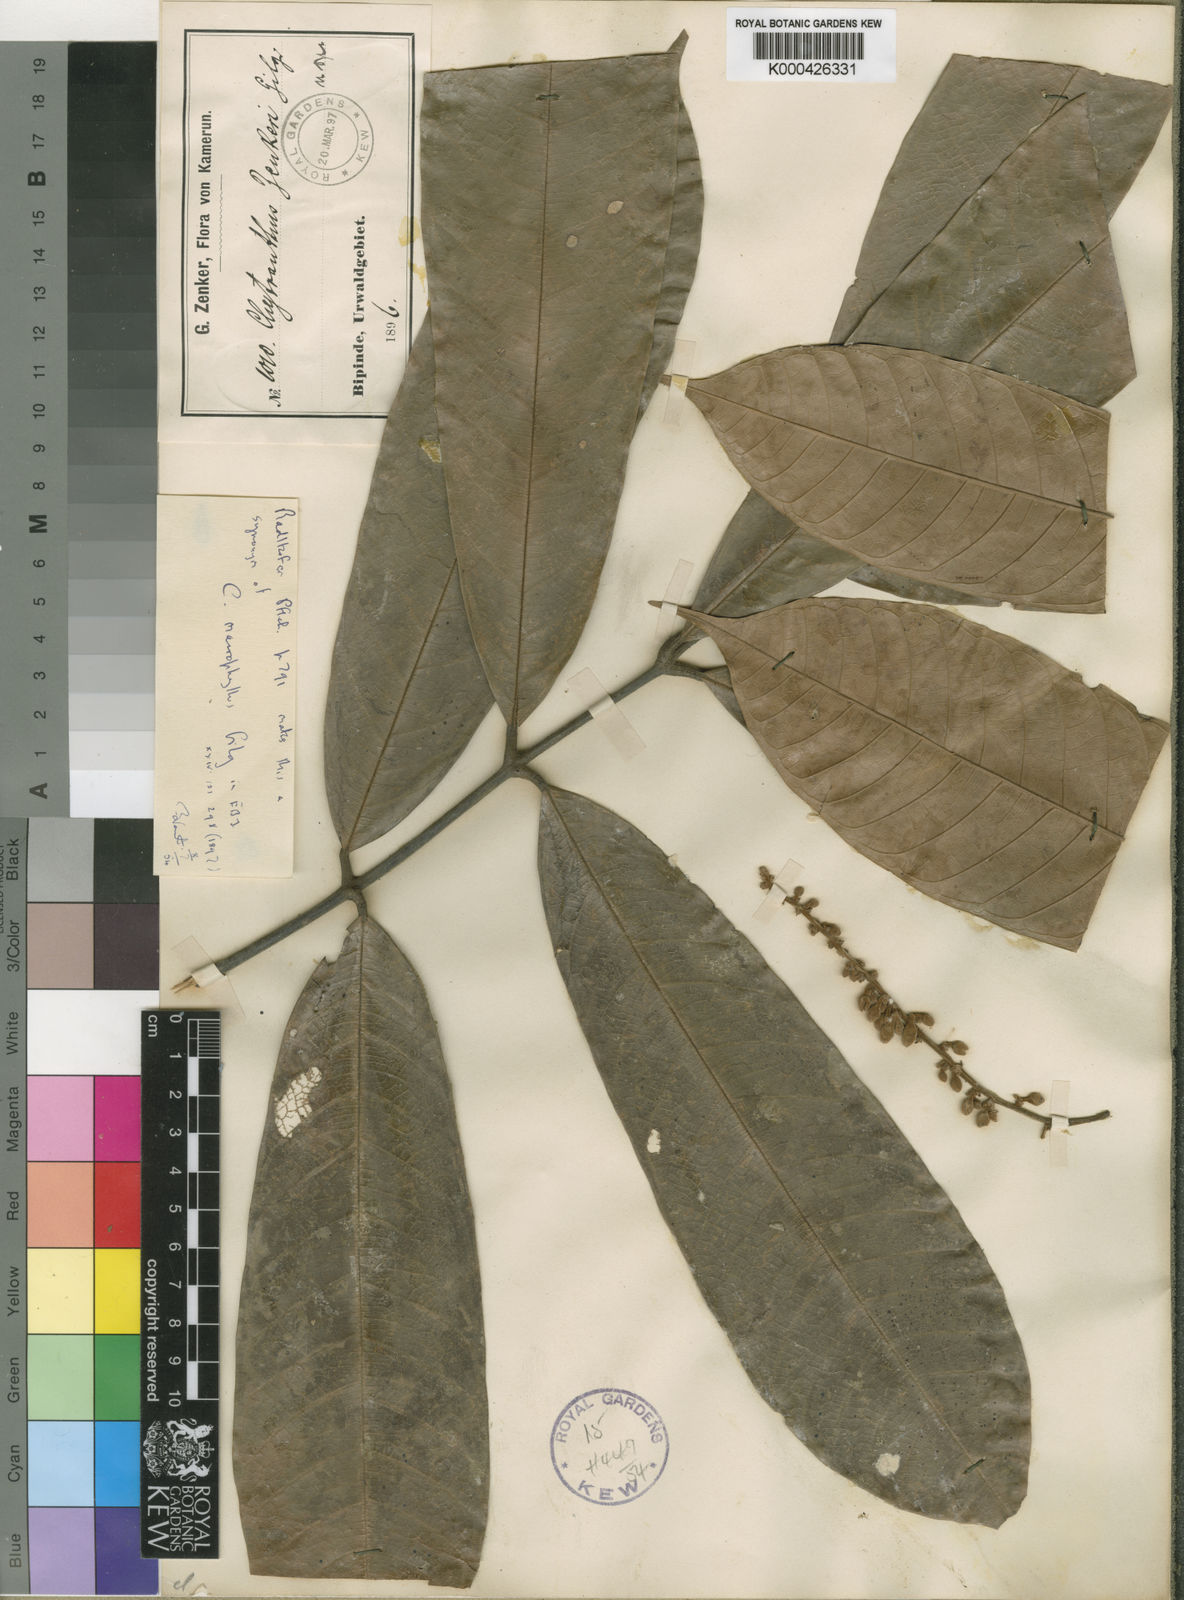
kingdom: Plantae
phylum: Tracheophyta
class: Magnoliopsida
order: Sapindales
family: Sapindaceae
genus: Chytranthus
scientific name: Chytranthus macrophyllus
